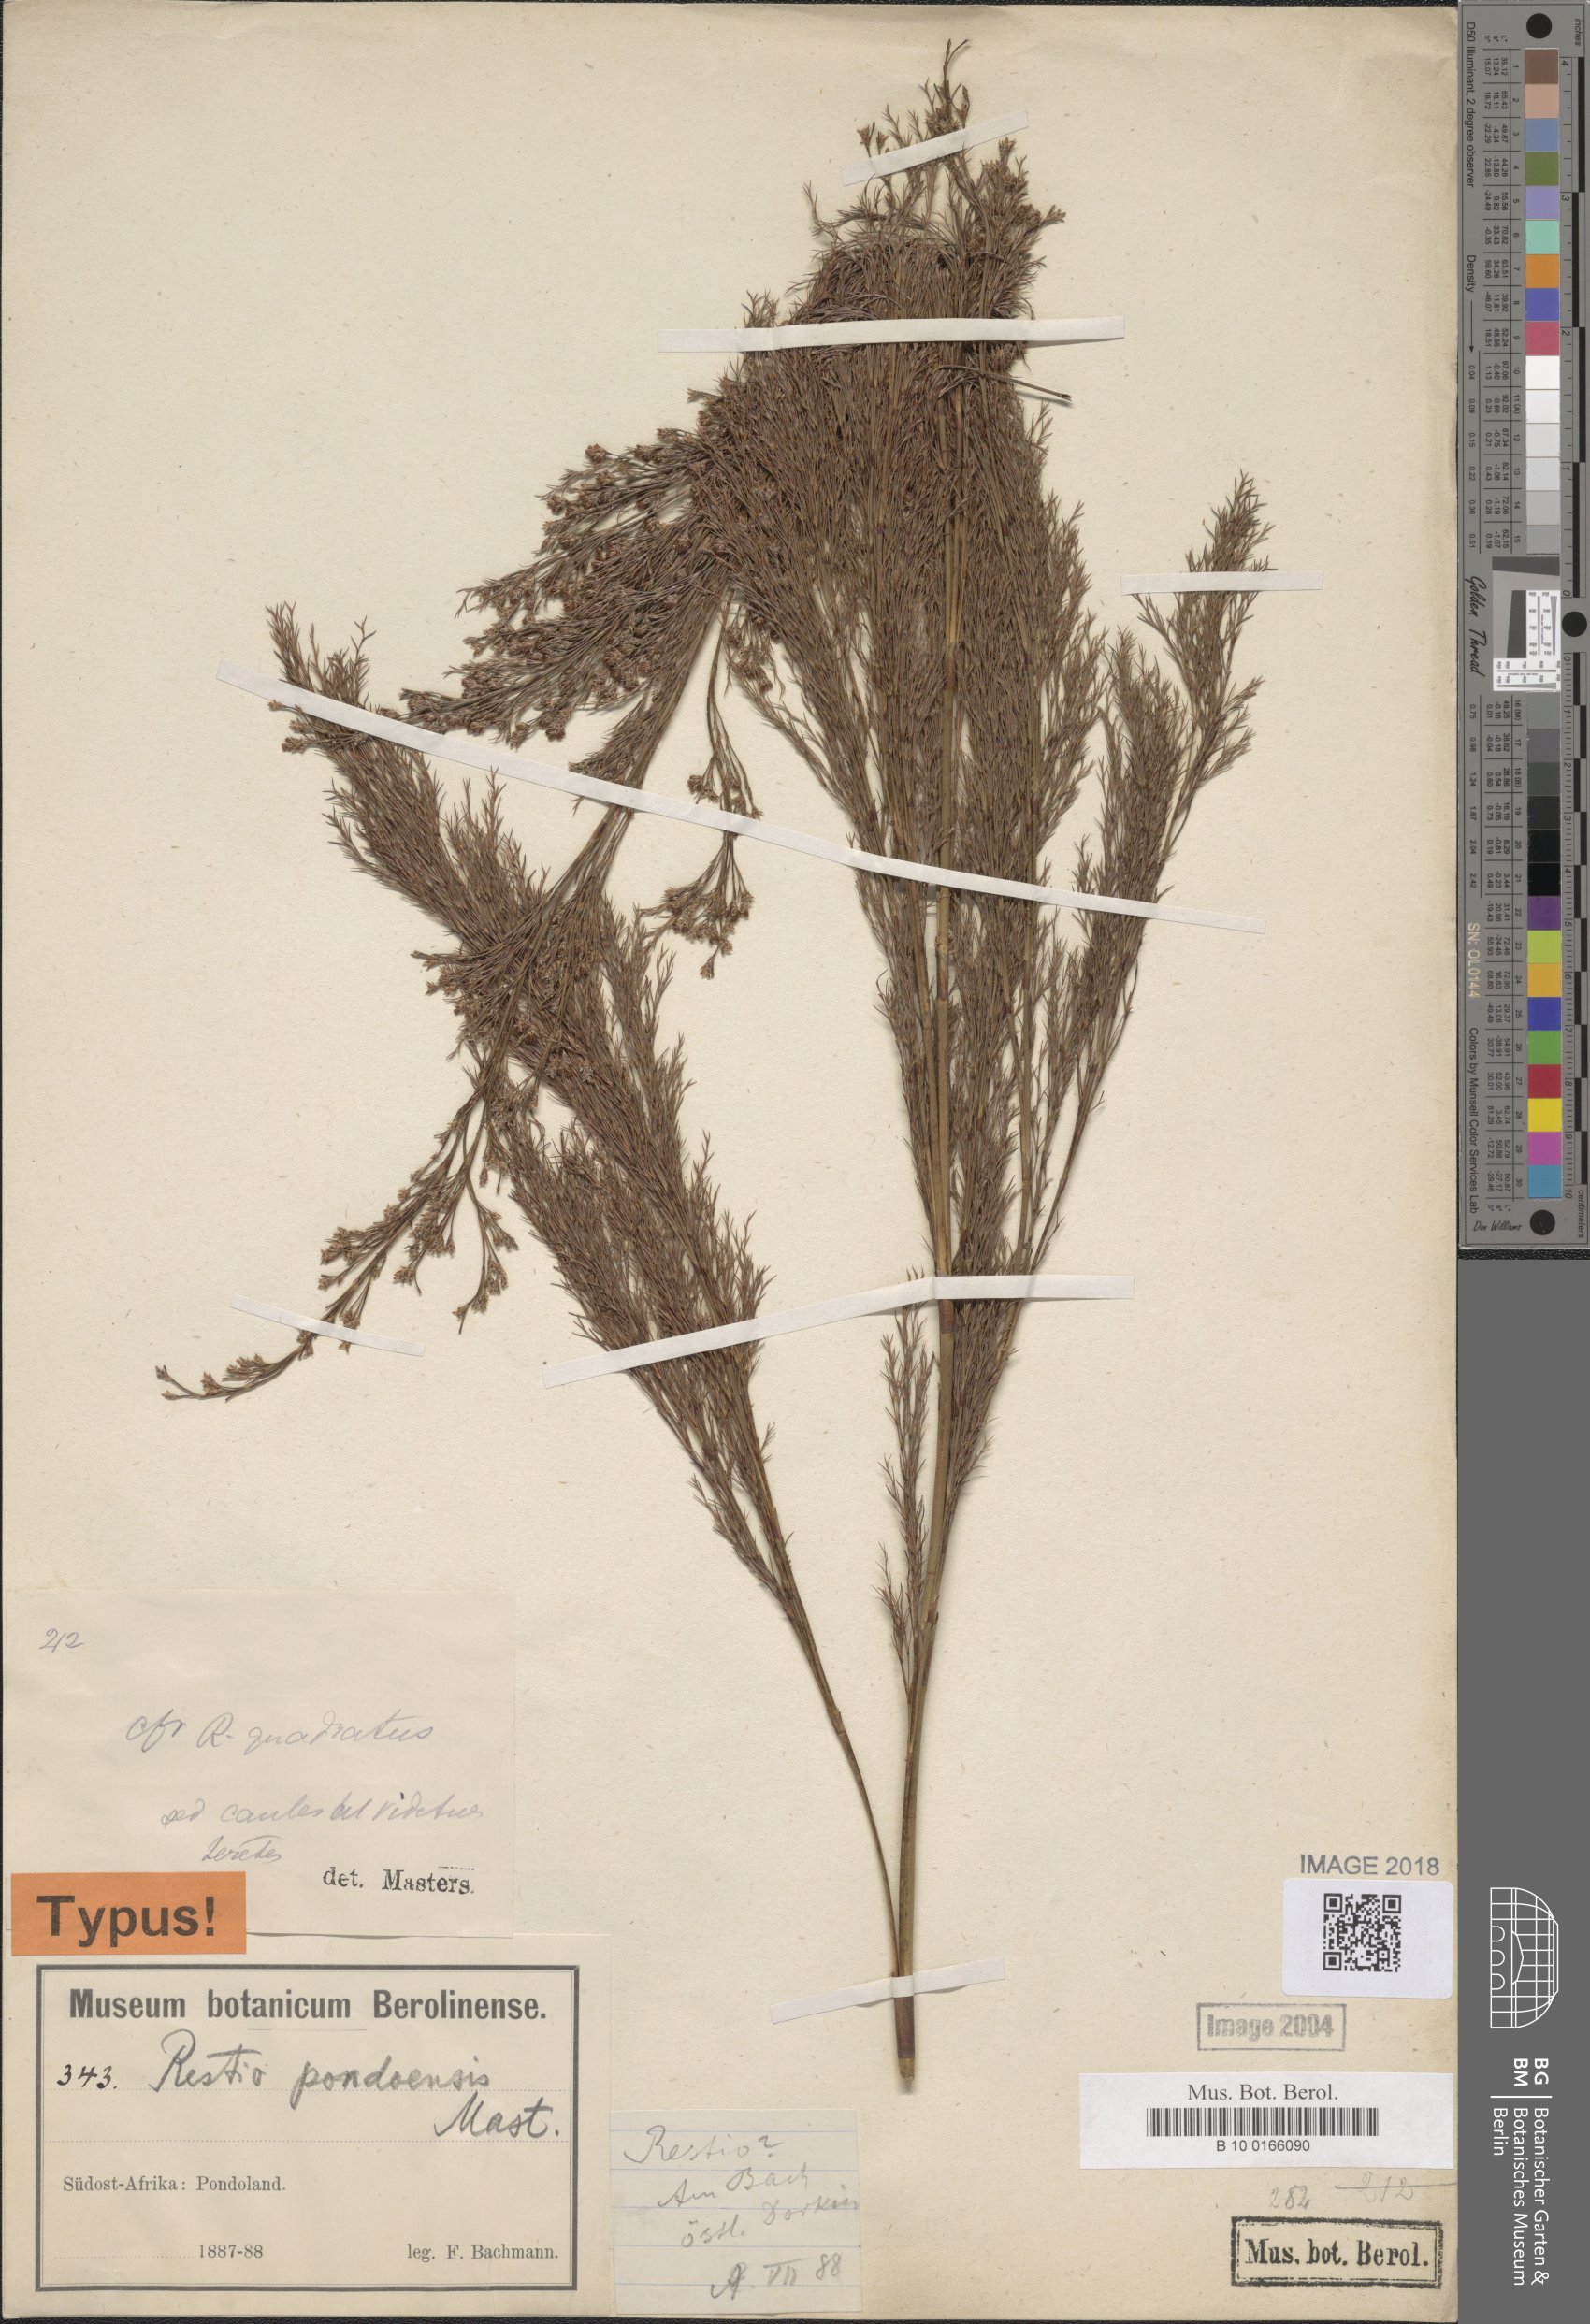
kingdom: Plantae
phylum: Tracheophyta
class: Liliopsida
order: Poales
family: Restionaceae
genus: Restio
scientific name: Restio paniculatus
